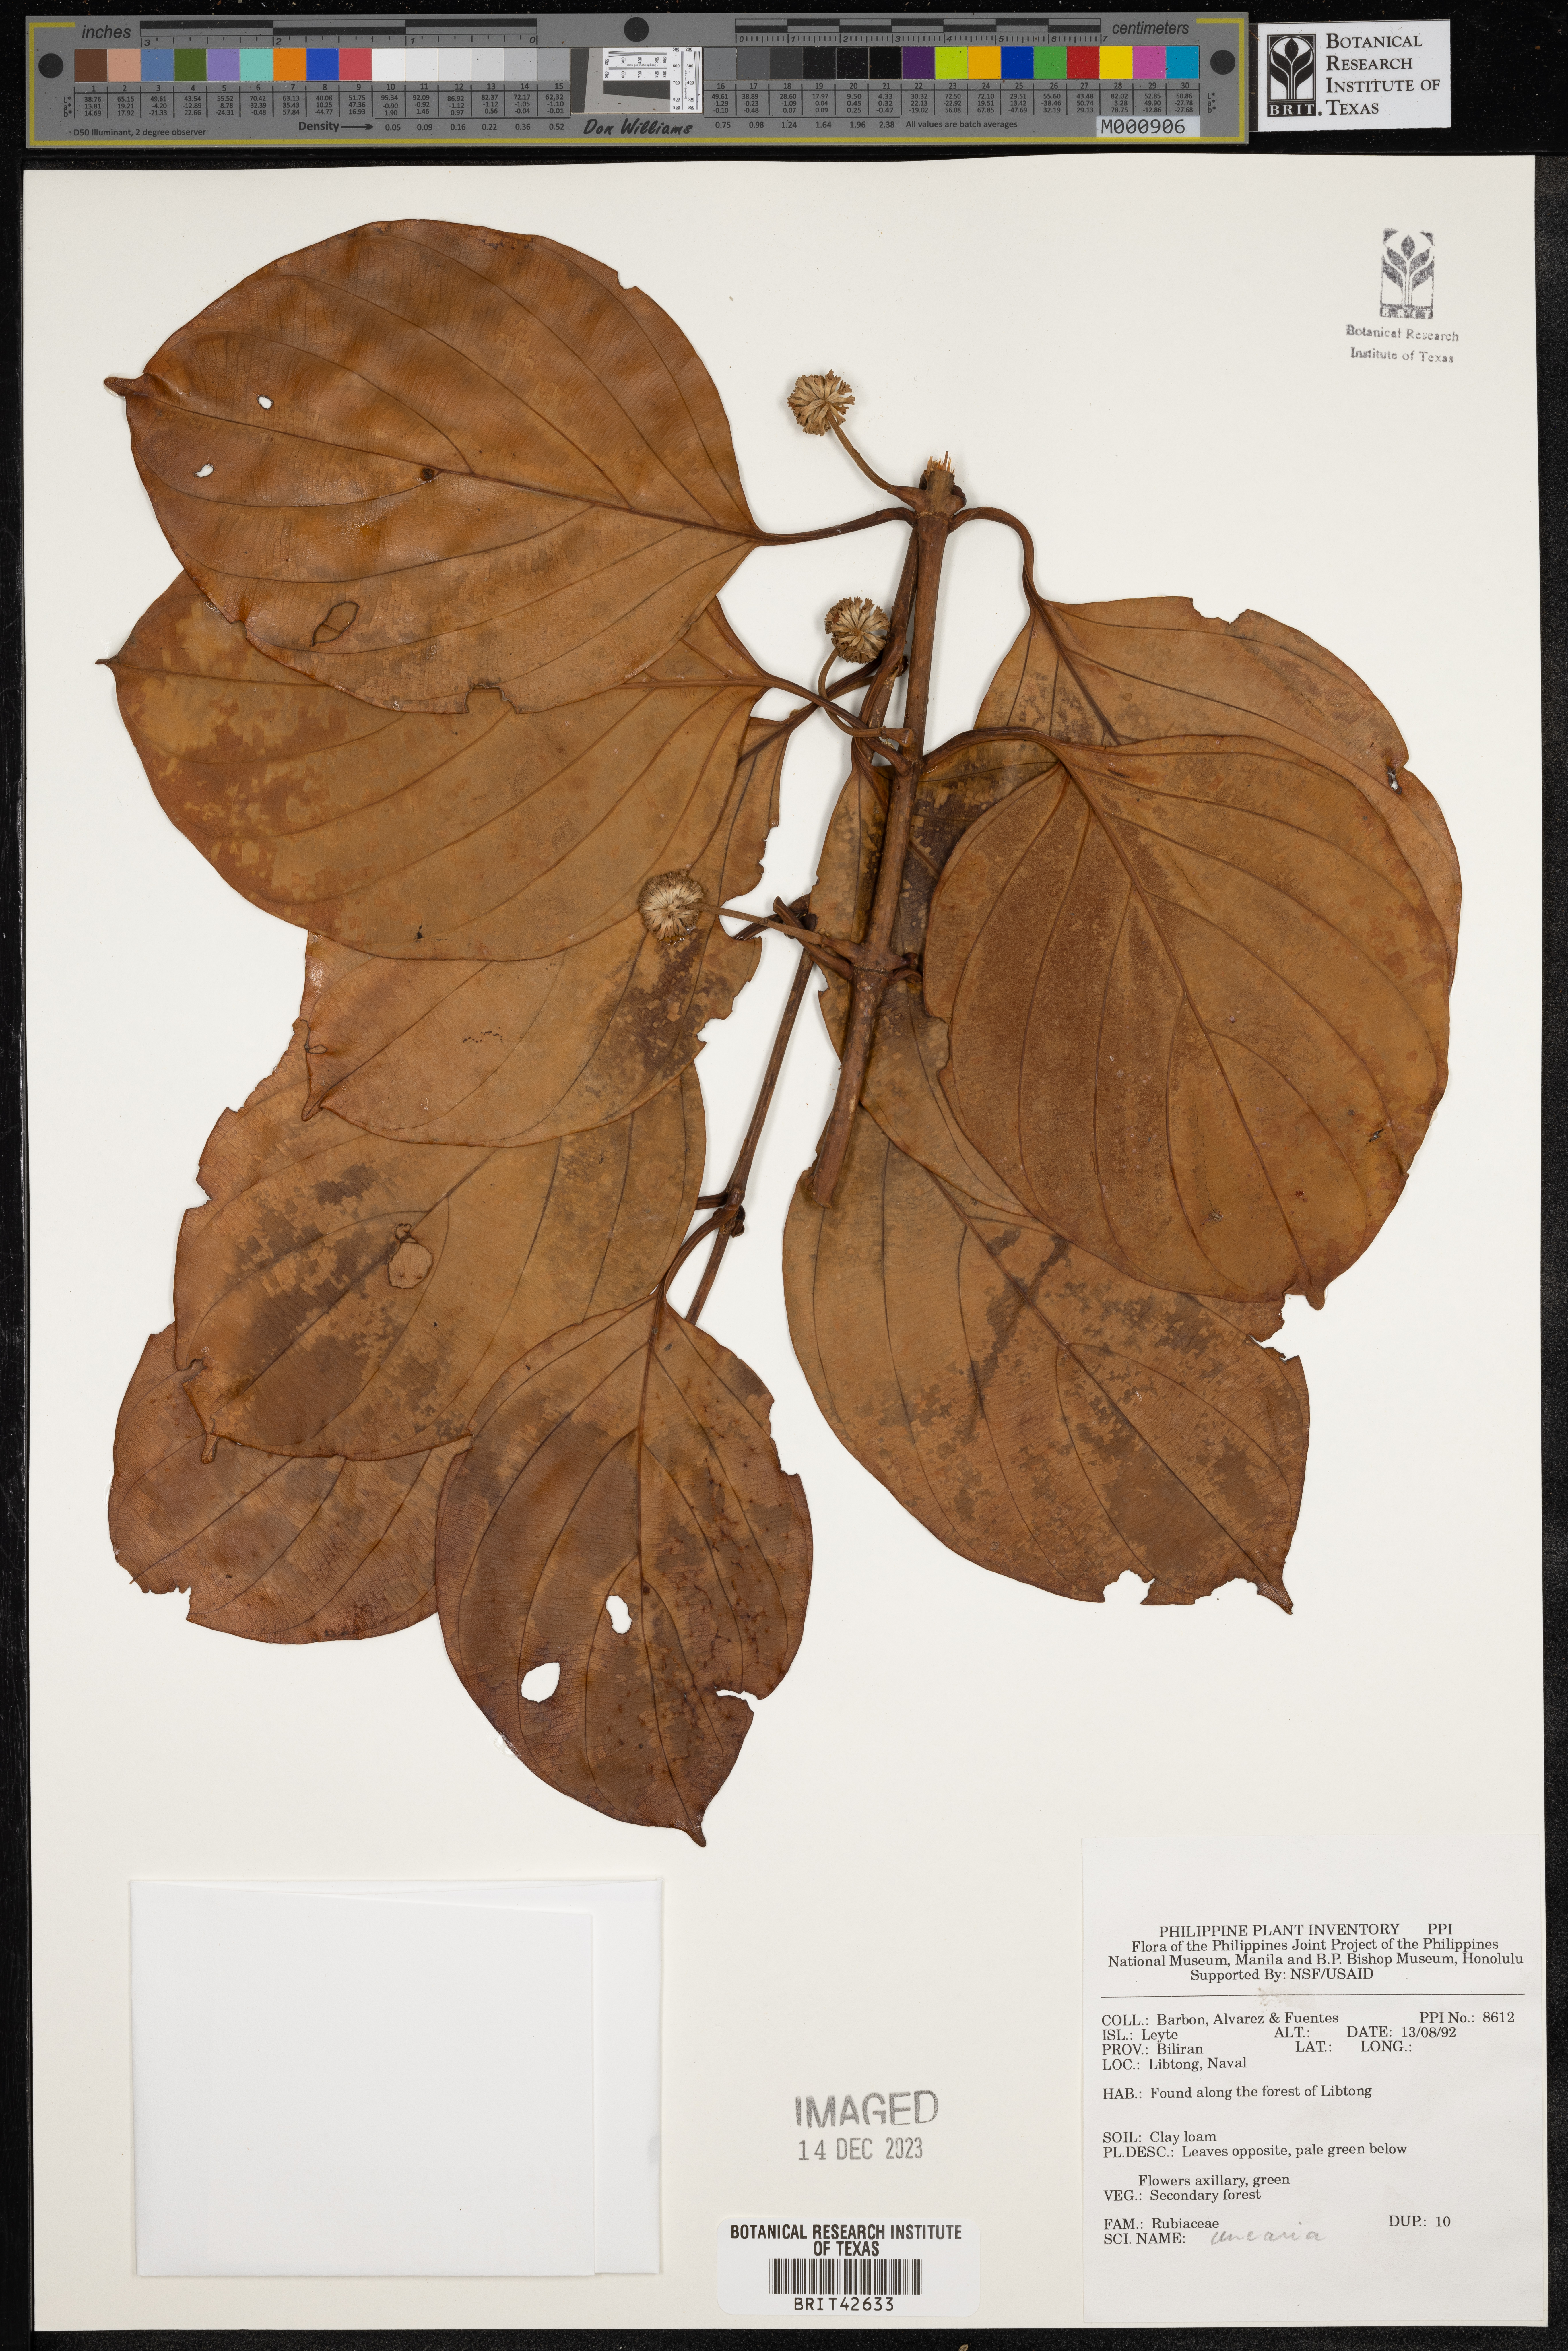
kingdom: Plantae
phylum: Tracheophyta
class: Magnoliopsida
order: Gentianales
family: Rubiaceae
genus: Uncaria
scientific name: Uncaria
